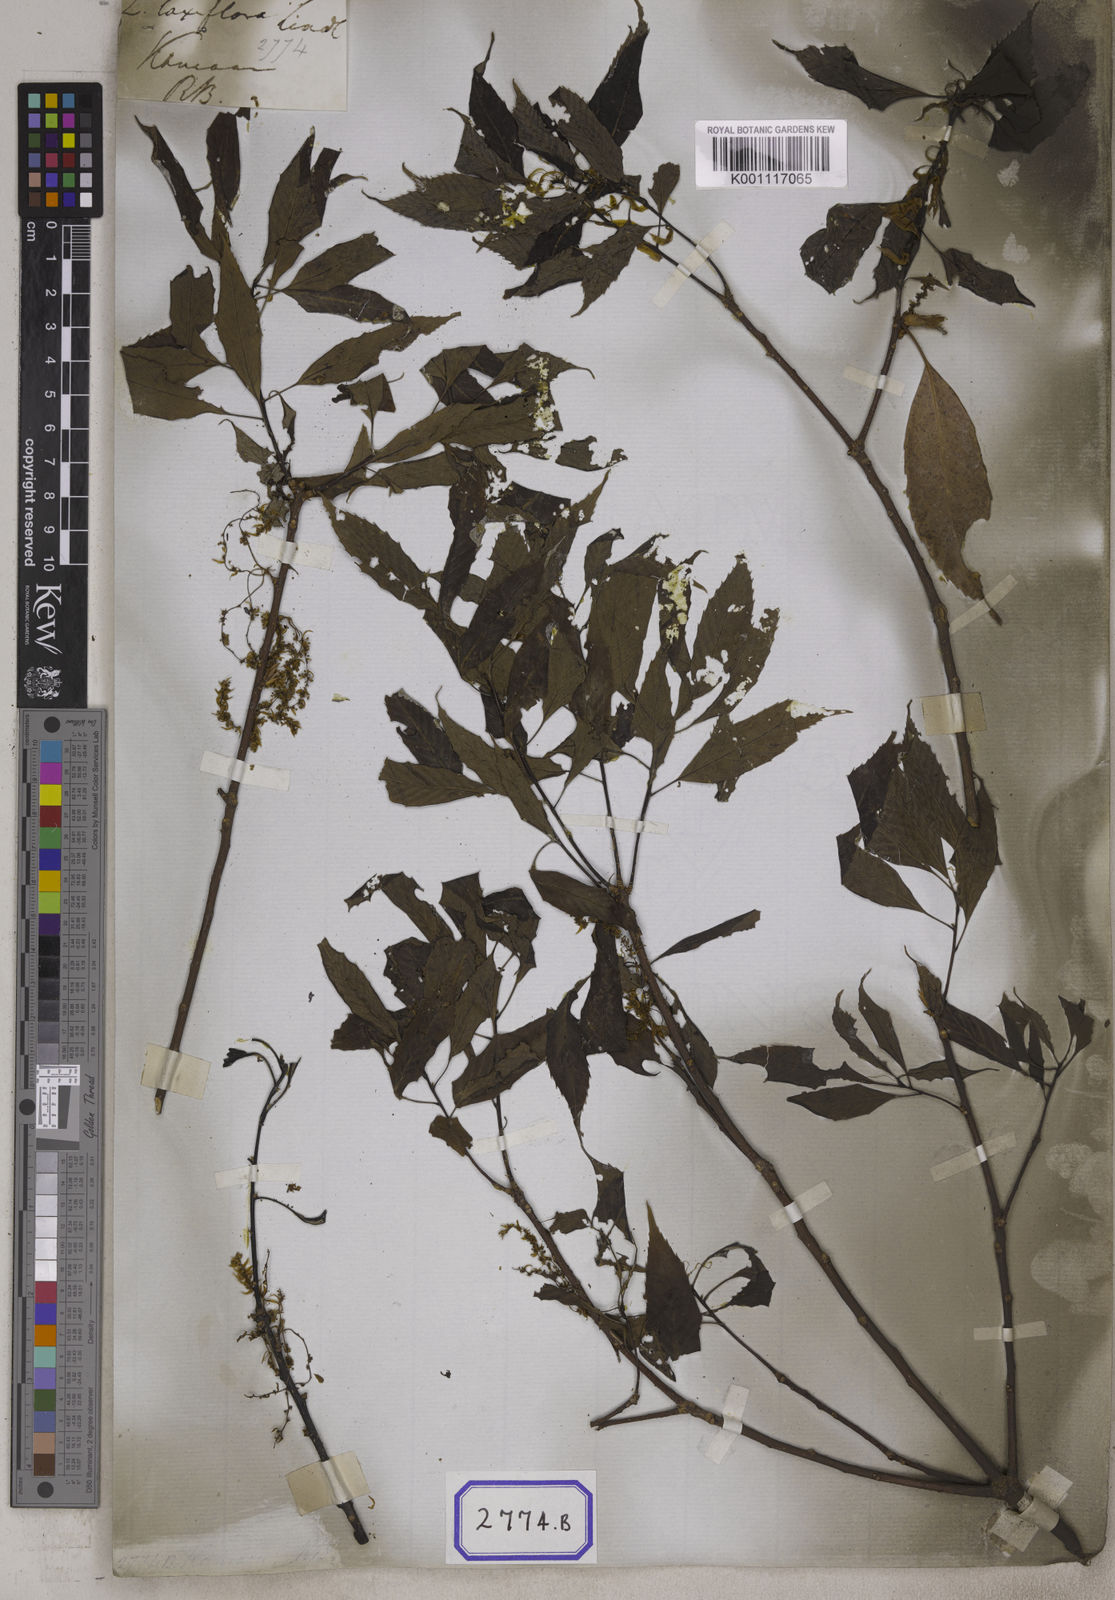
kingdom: Plantae
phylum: Tracheophyta
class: Magnoliopsida
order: Fagales
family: Fagaceae
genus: Quercus
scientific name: Quercus
